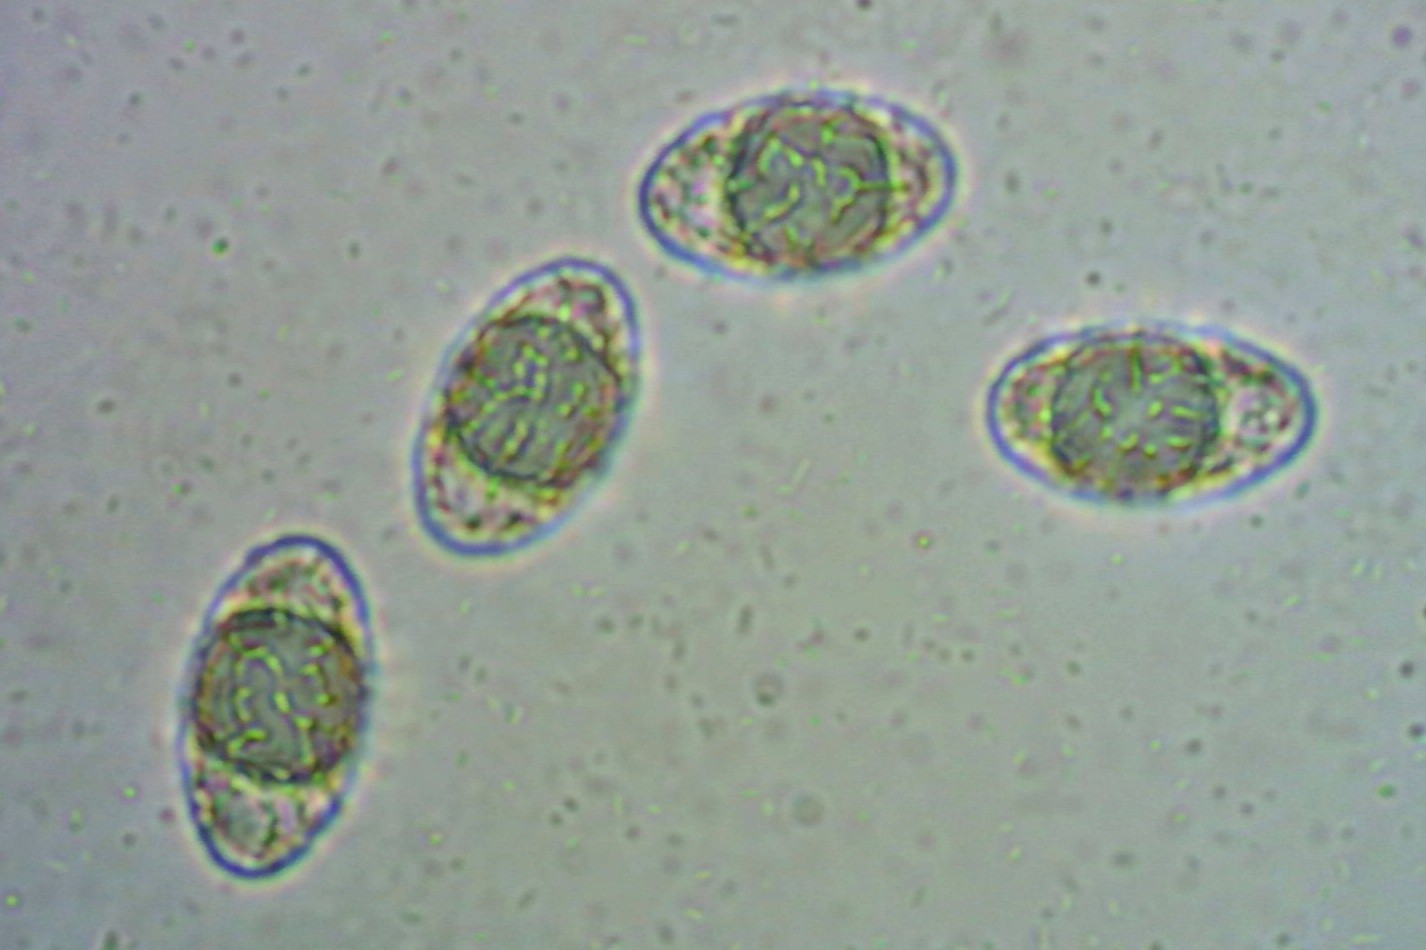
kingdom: Fungi
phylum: Ascomycota
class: Pezizomycetes
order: Pezizales
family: Pyronemataceae
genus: Neottiella
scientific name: Neottiella rutilans
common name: jomfruhår-mosbæger
